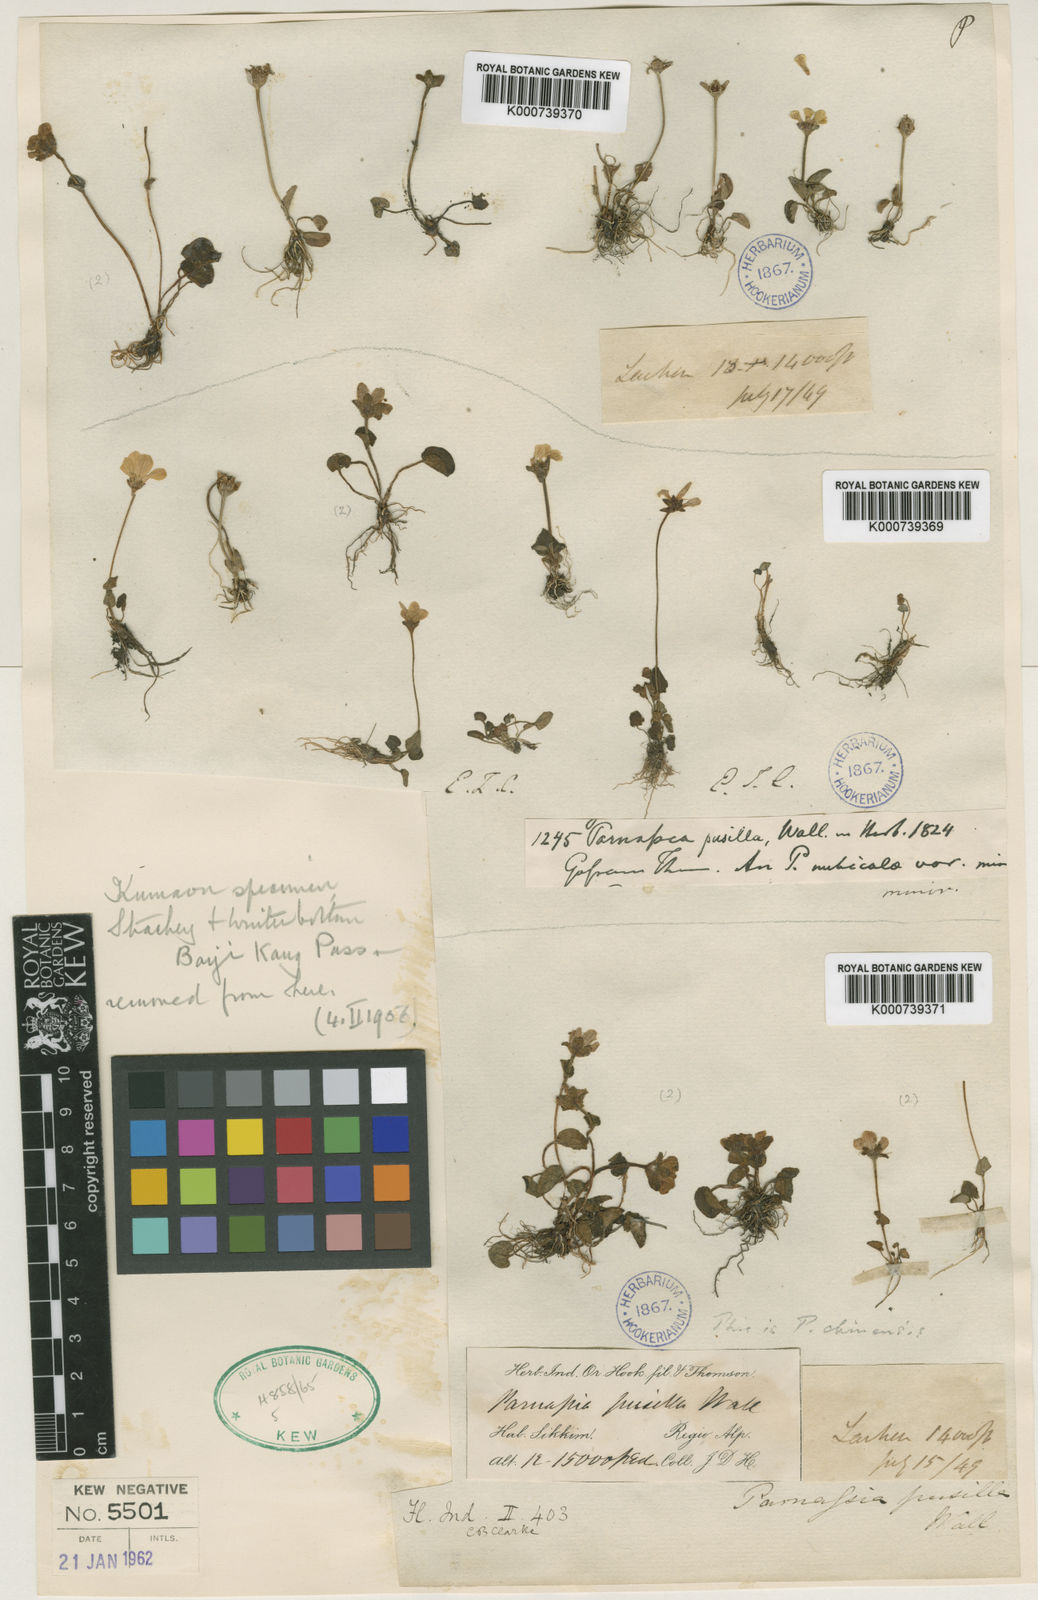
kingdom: Plantae
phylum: Tracheophyta
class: Magnoliopsida
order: Celastrales
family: Parnassiaceae
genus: Parnassia
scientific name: Parnassia pusilla
